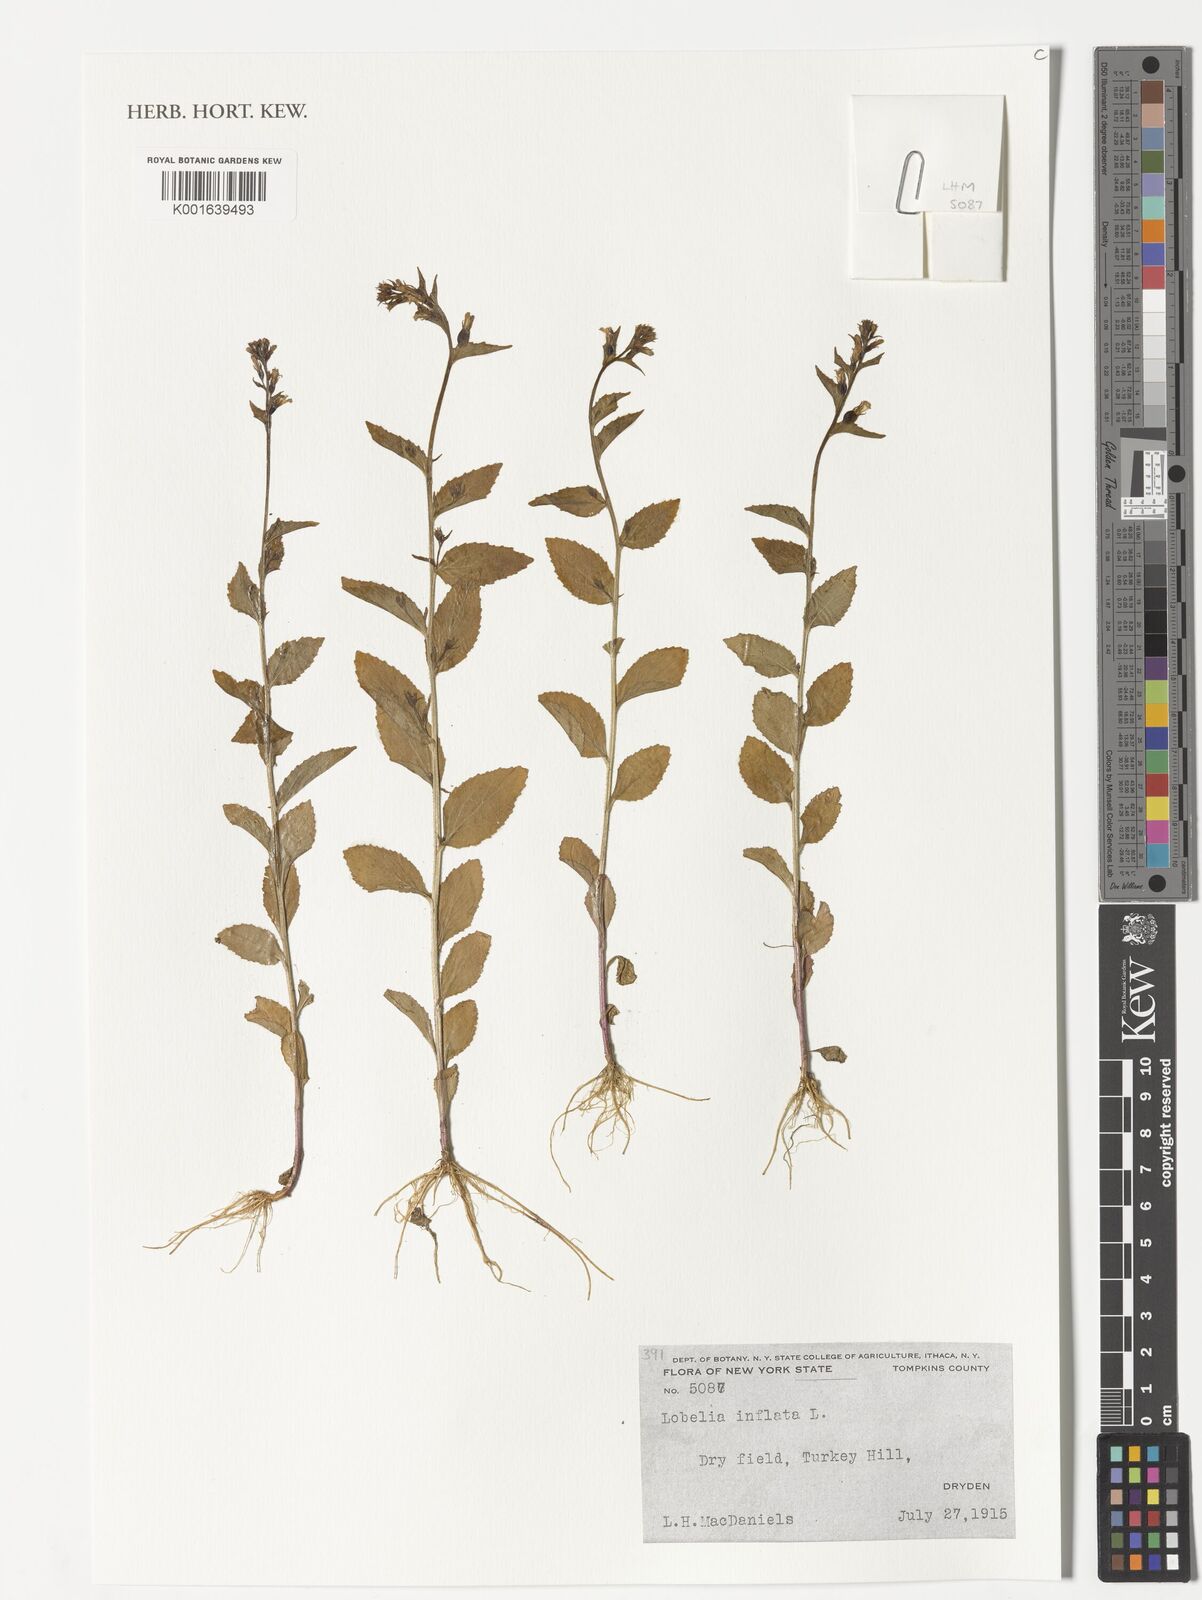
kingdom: Plantae
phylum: Tracheophyta
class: Magnoliopsida
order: Asterales
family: Campanulaceae
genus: Lobelia
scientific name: Lobelia inflata
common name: Indian tobacco
